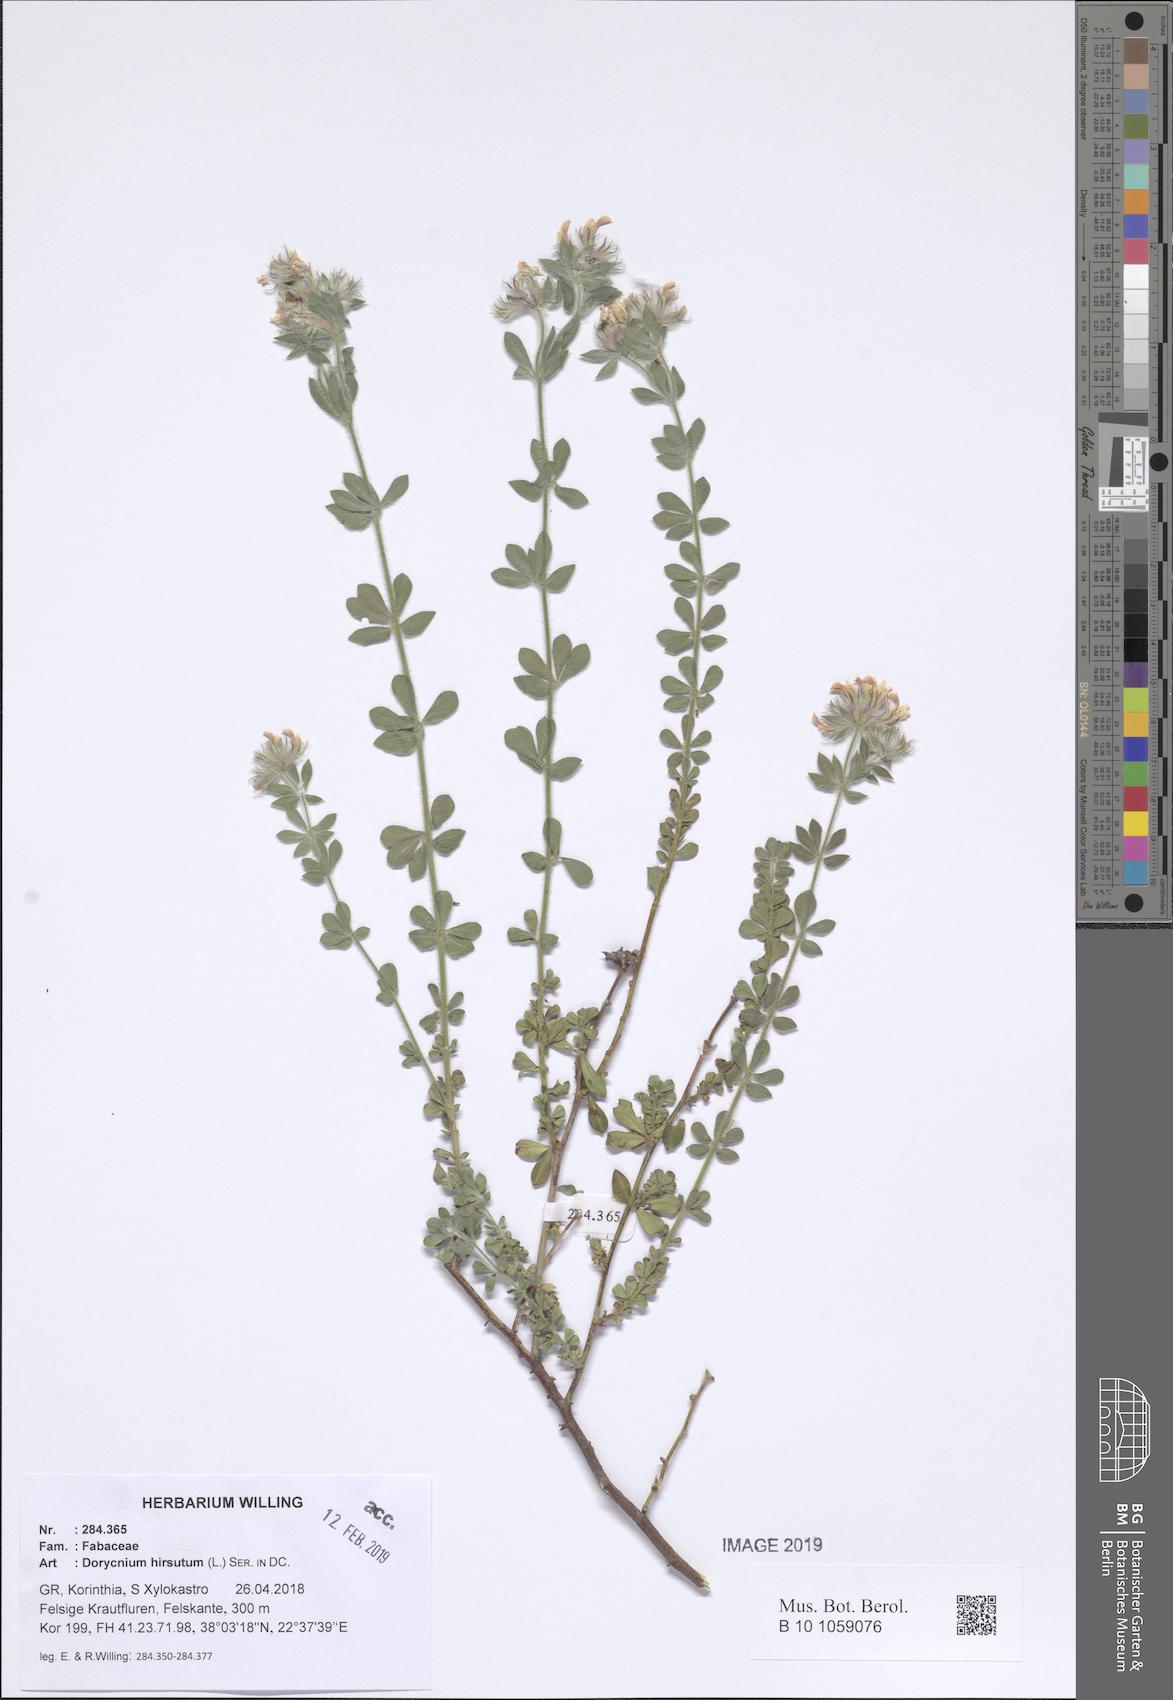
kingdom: Plantae
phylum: Tracheophyta
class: Magnoliopsida
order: Fabales
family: Fabaceae
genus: Lotus
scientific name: Lotus hirsutus
